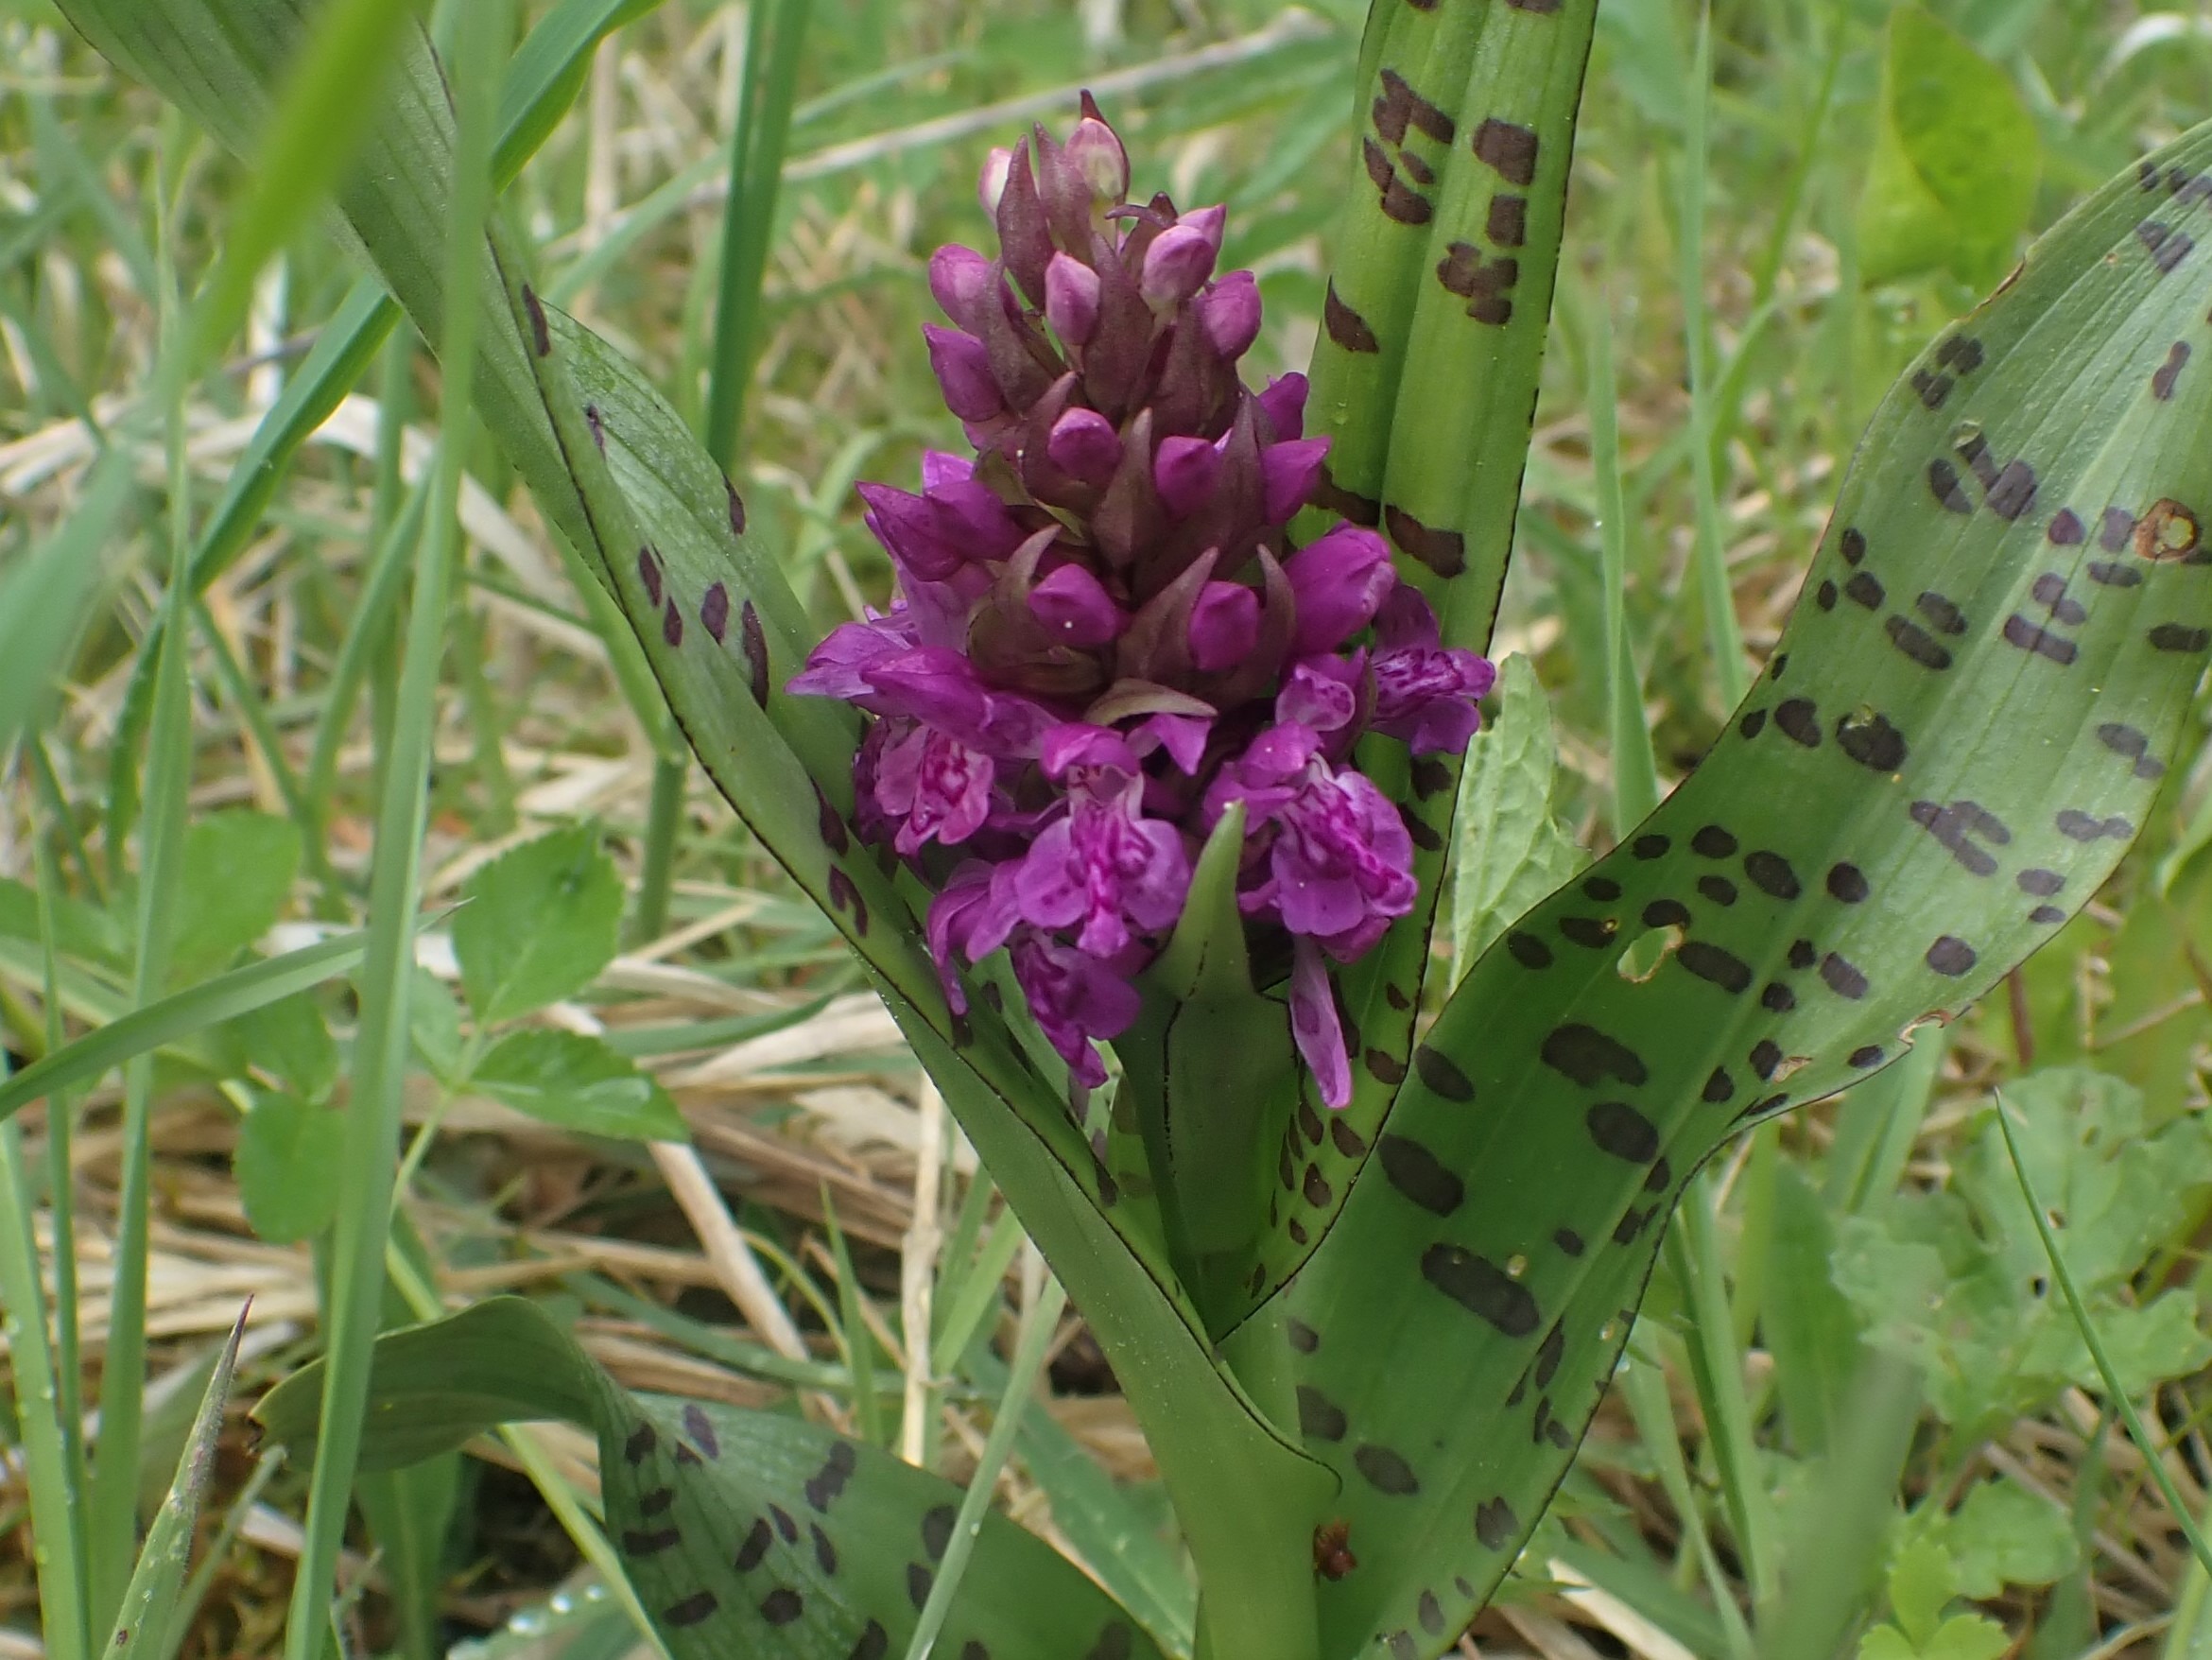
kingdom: Plantae
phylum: Tracheophyta
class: Liliopsida
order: Asparagales
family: Orchidaceae
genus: Dactylorhiza
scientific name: Dactylorhiza majalis
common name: Maj-gøgeurt
